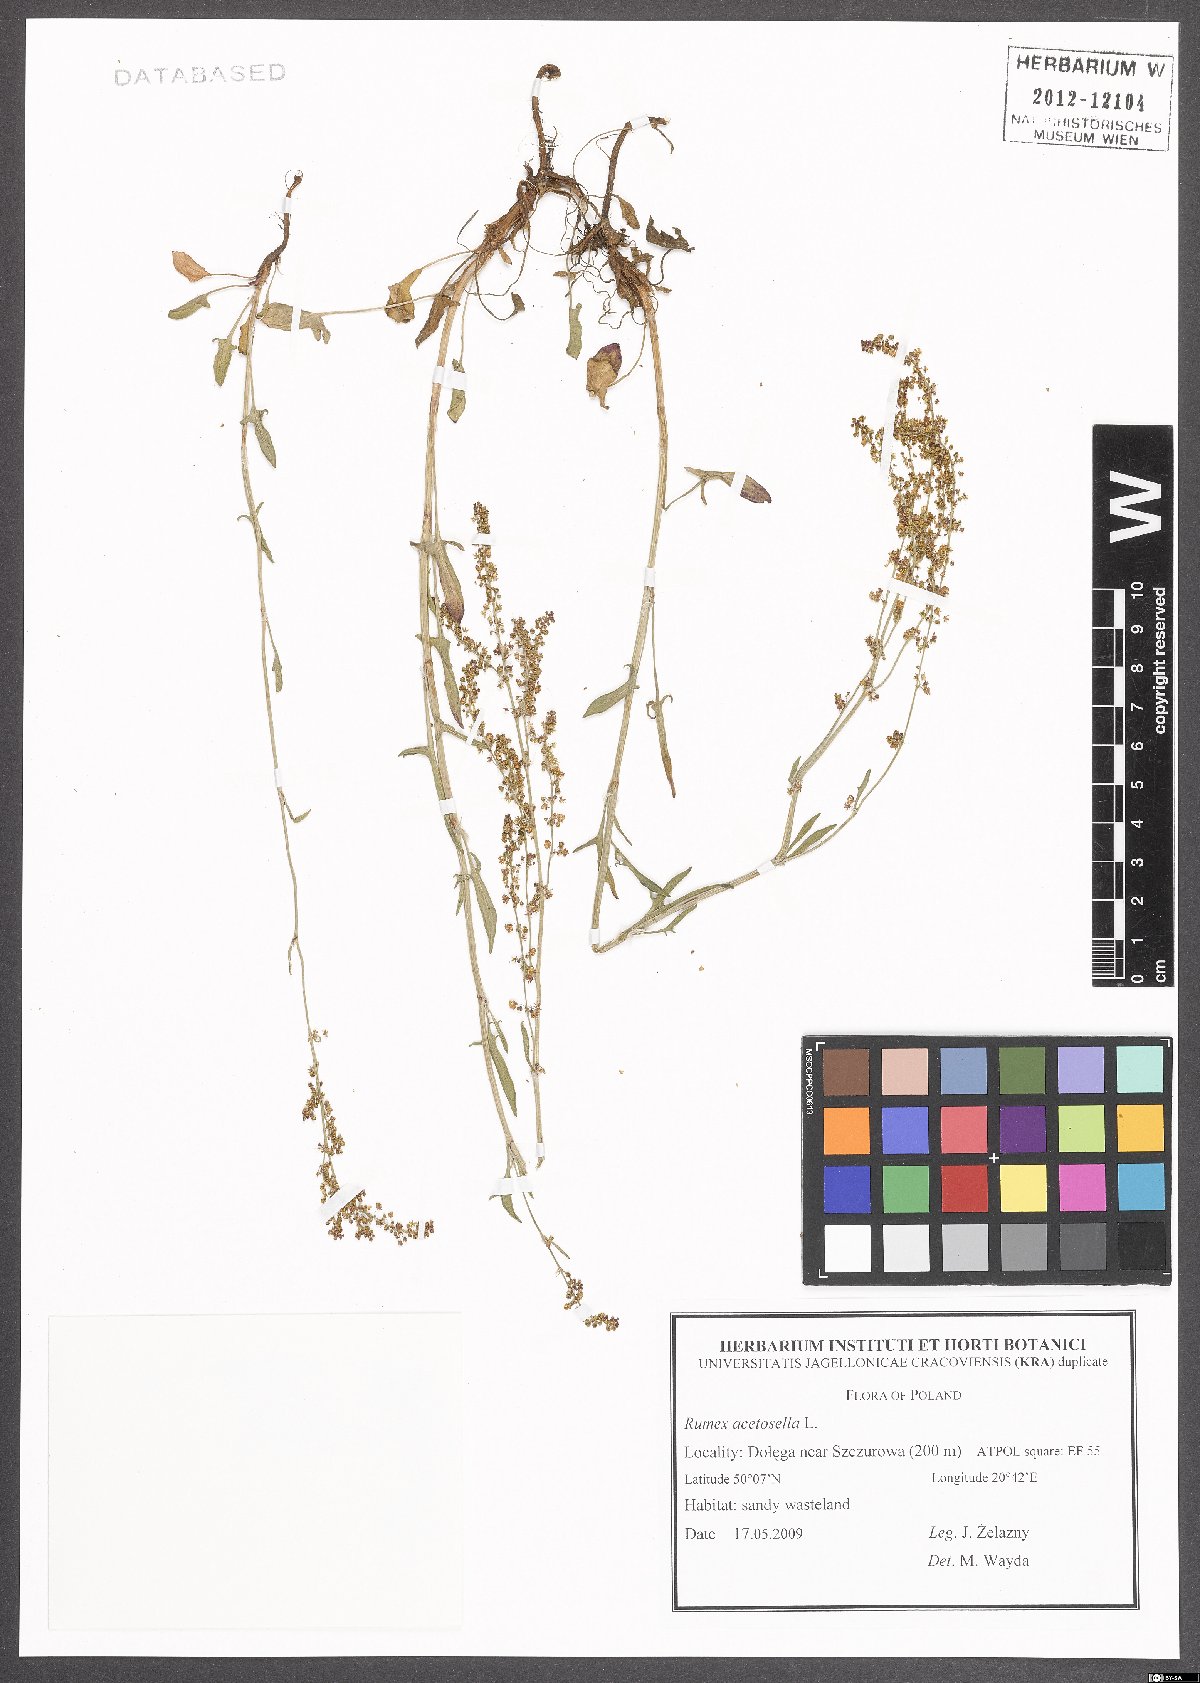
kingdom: Plantae
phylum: Tracheophyta
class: Magnoliopsida
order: Caryophyllales
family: Polygonaceae
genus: Rumex
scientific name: Rumex acetosella
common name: Common sheep sorrel
